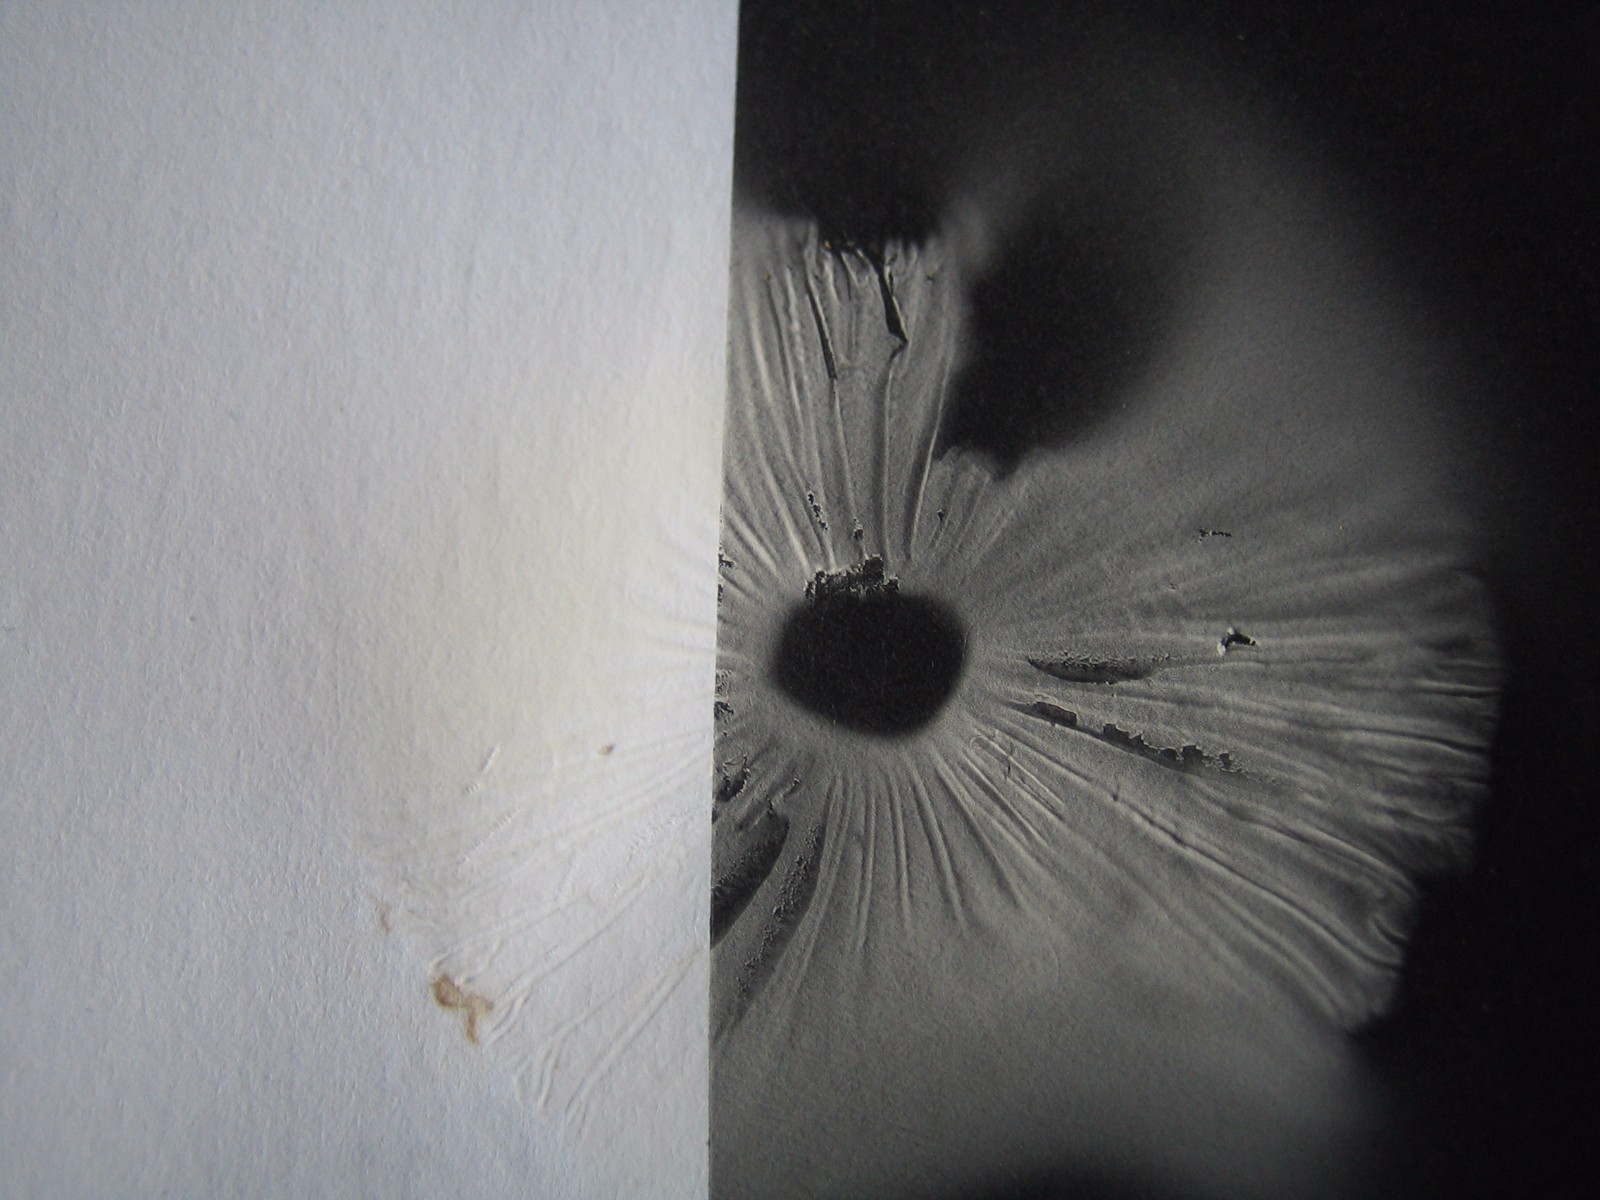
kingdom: Fungi
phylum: Basidiomycota
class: Agaricomycetes
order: Agaricales
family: Marasmiaceae
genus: Marasmius
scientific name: Marasmius oreades
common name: elledans-bruskhat
